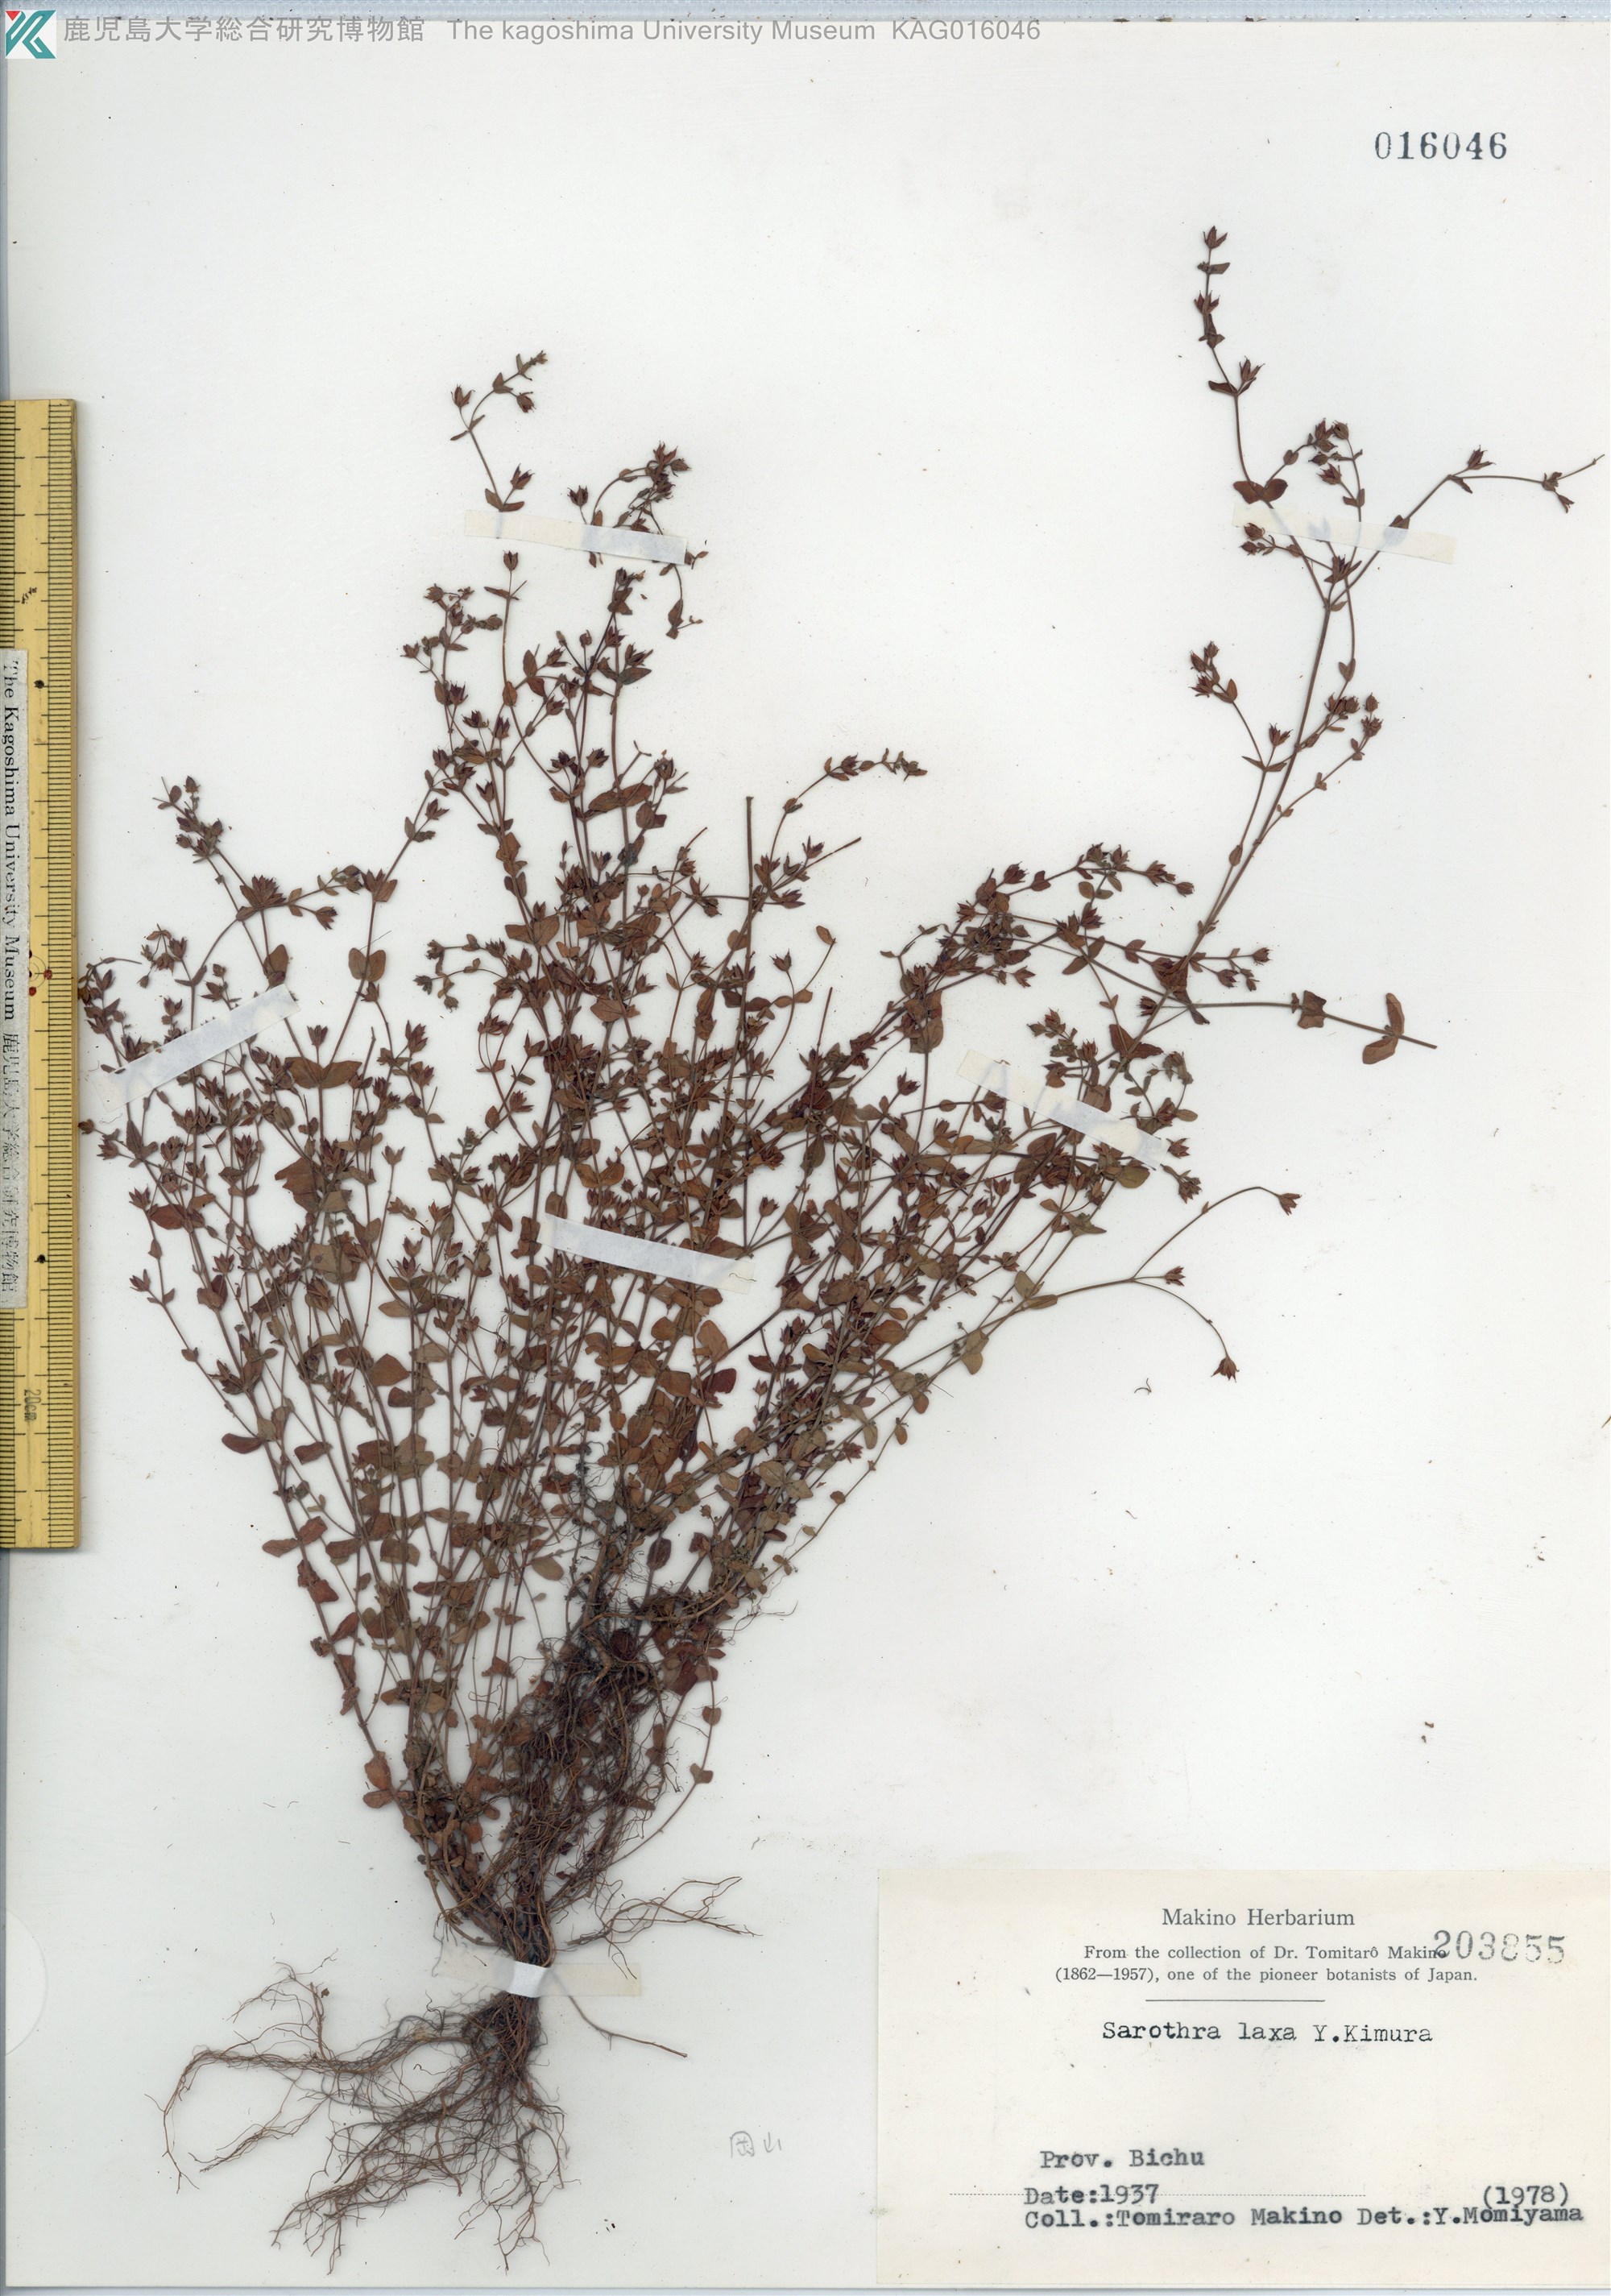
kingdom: Plantae
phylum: Tracheophyta
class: Magnoliopsida
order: Malpighiales
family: Hypericaceae
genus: Hypericum
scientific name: Hypericum japonicum
